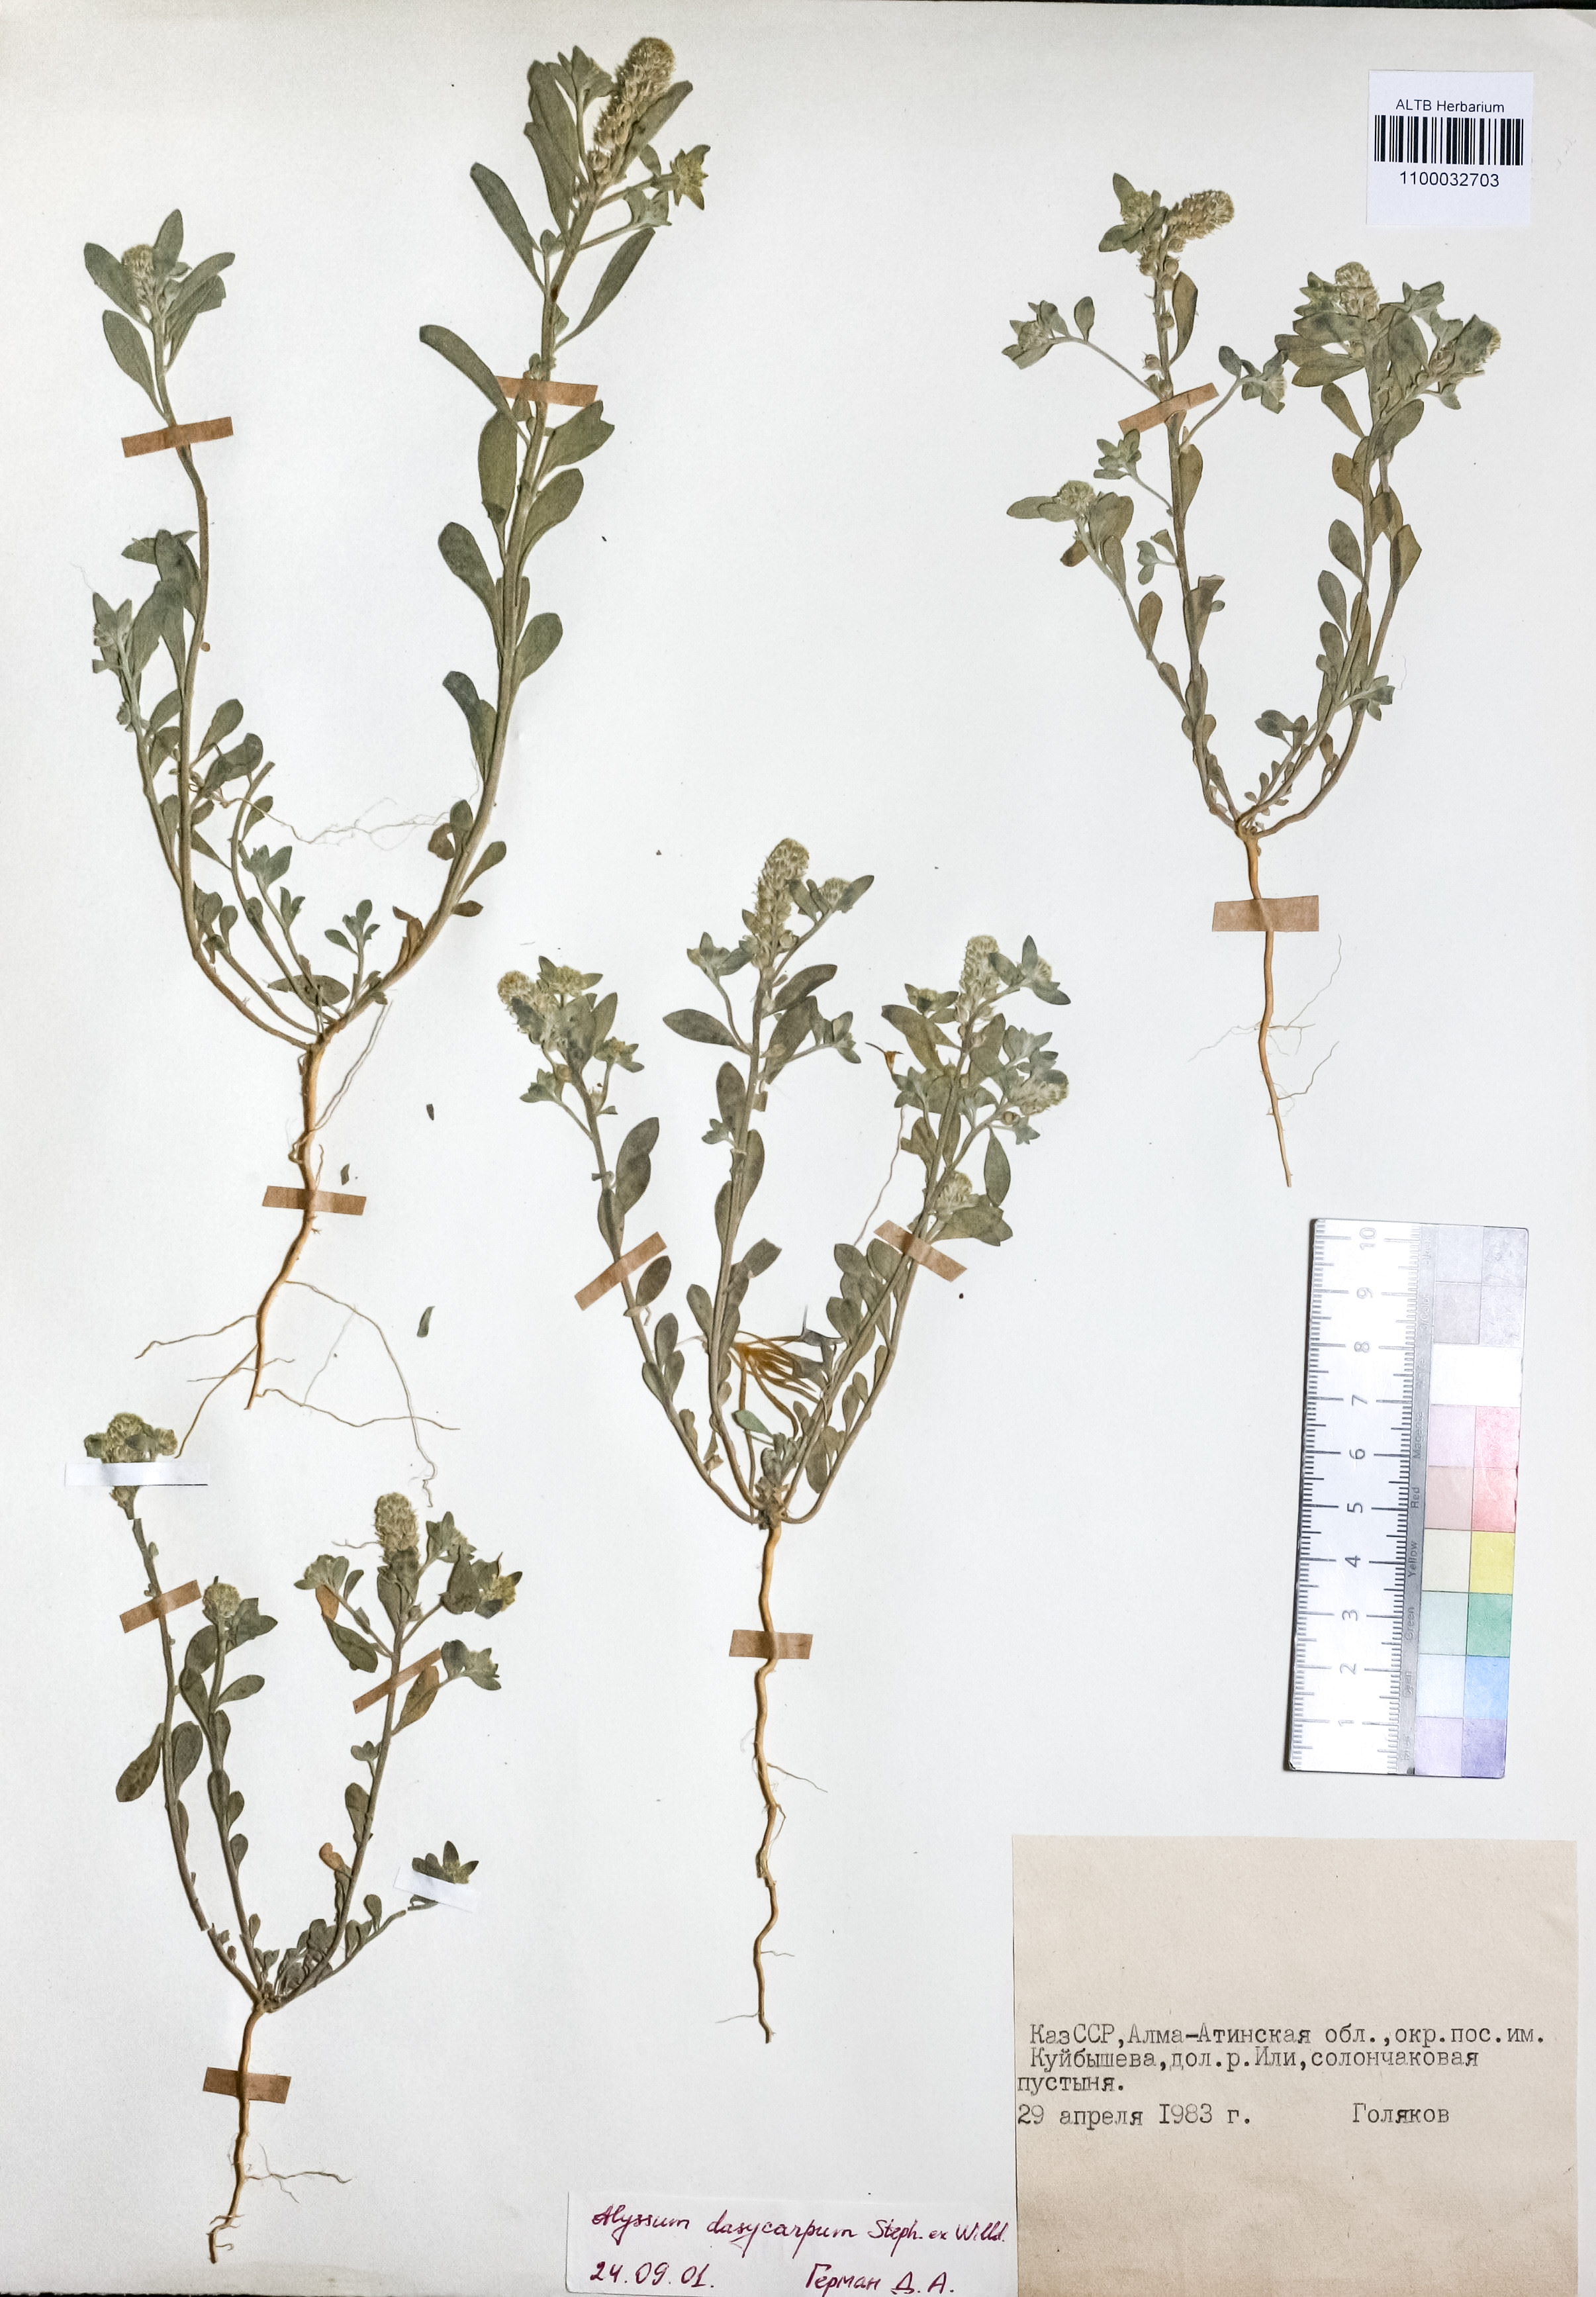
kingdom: Plantae
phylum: Tracheophyta
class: Magnoliopsida
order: Brassicales
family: Brassicaceae
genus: Alyssum
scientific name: Alyssum dasycarpum
